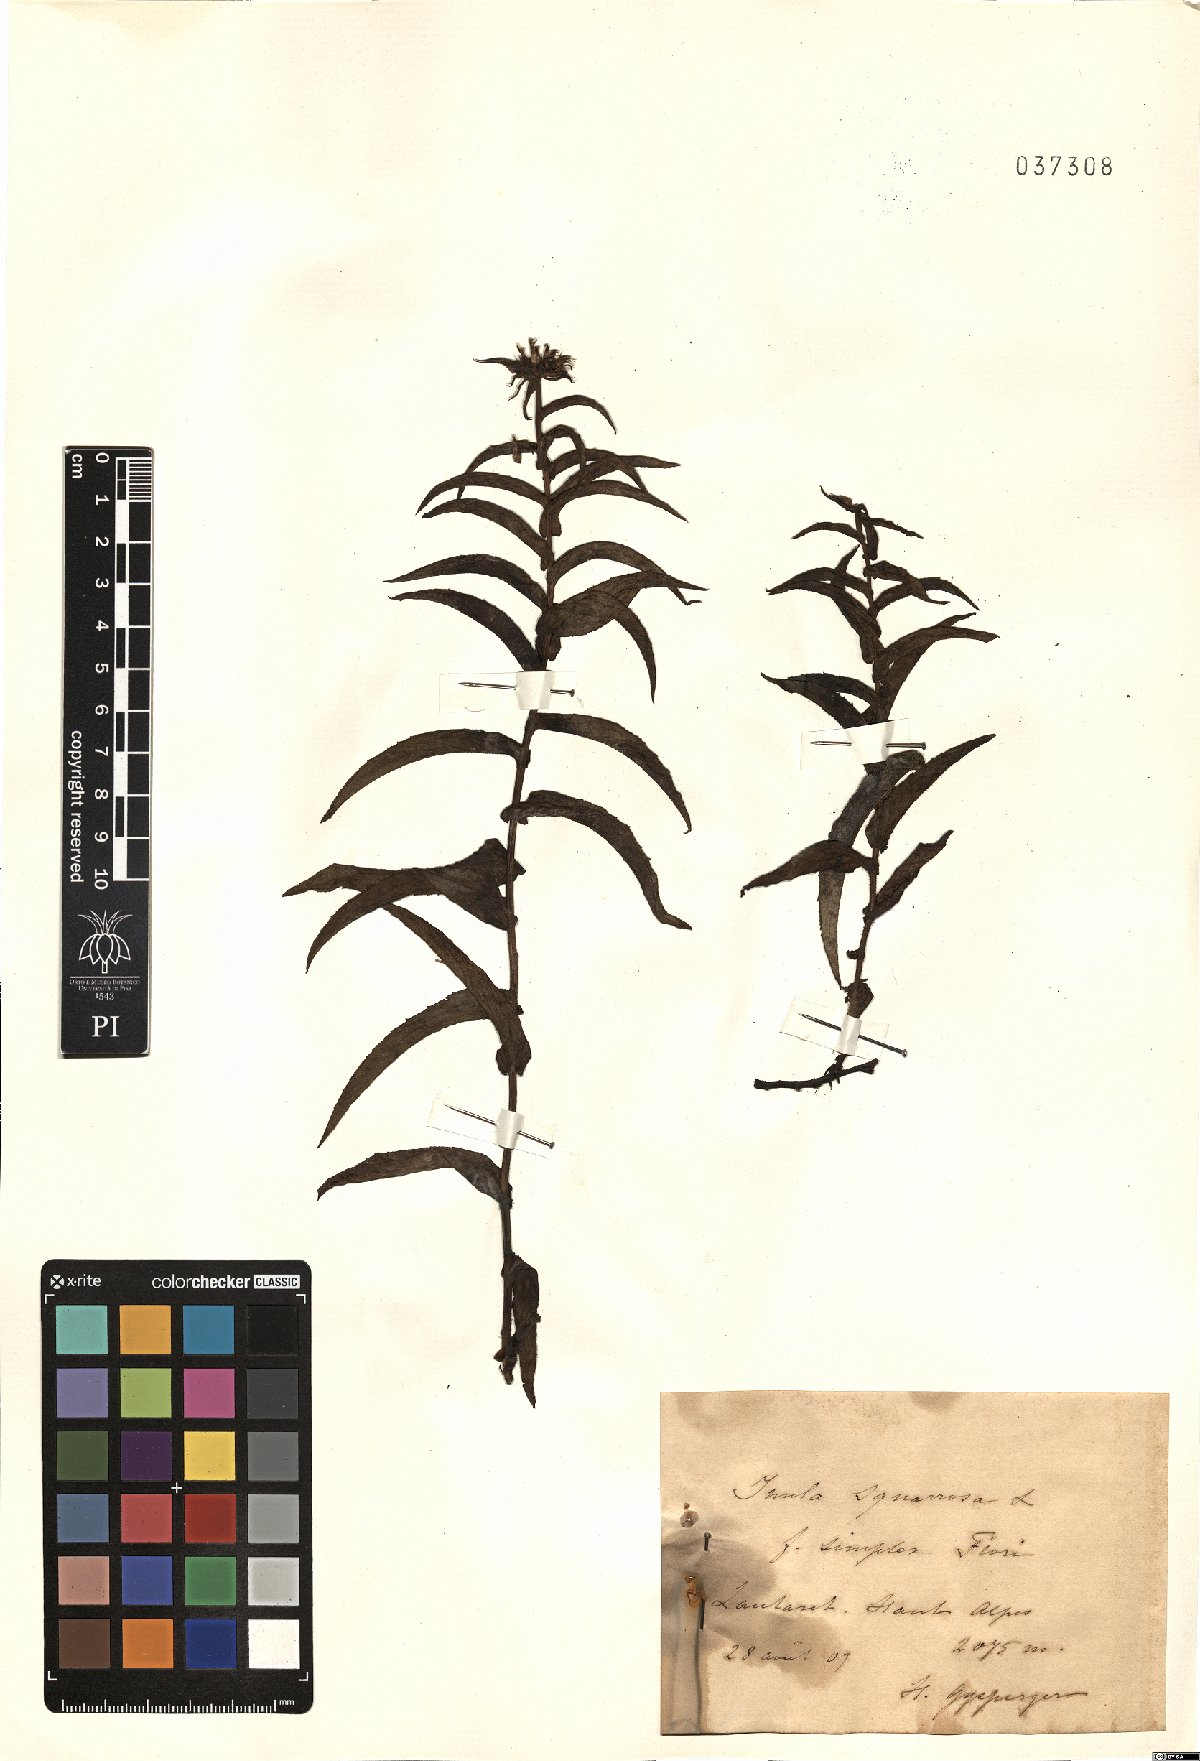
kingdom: Plantae
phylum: Tracheophyta
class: Magnoliopsida
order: Asterales
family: Asteraceae
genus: Pentanema
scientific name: Pentanema
